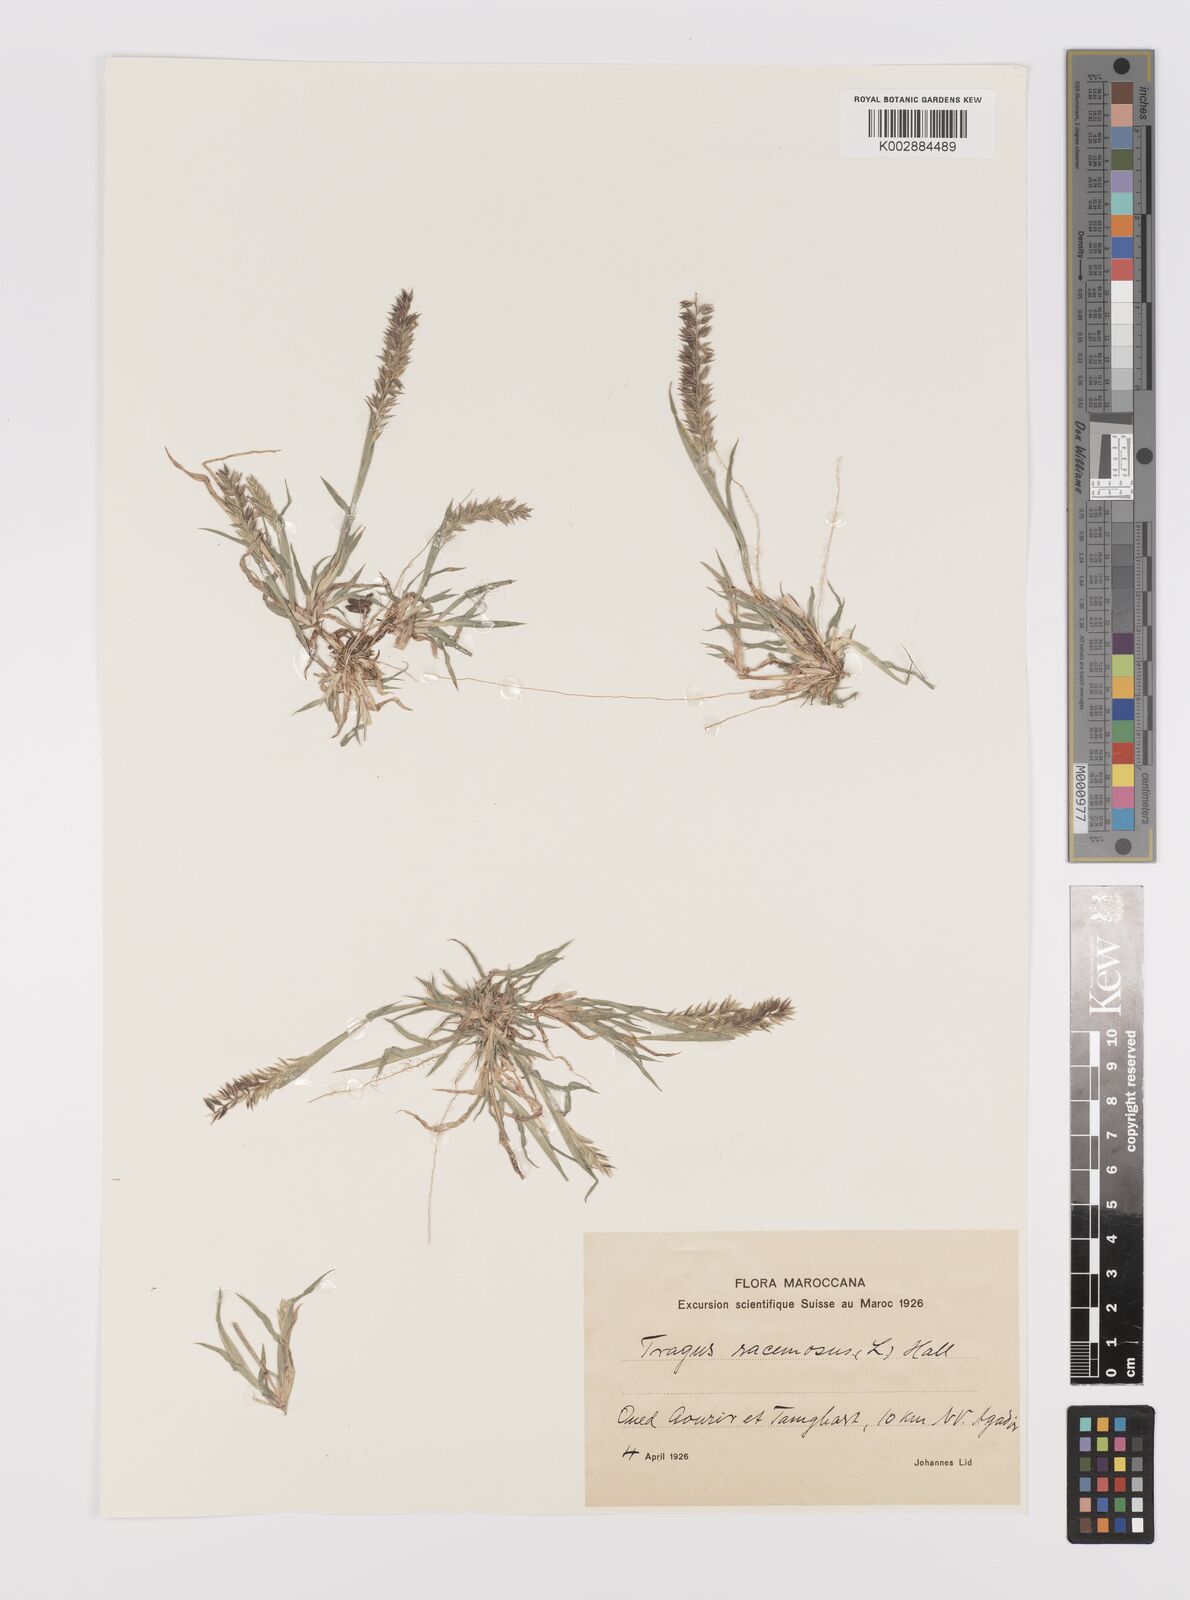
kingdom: Plantae
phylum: Tracheophyta
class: Liliopsida
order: Poales
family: Poaceae
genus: Tragus
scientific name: Tragus racemosus
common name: European bur-grass
